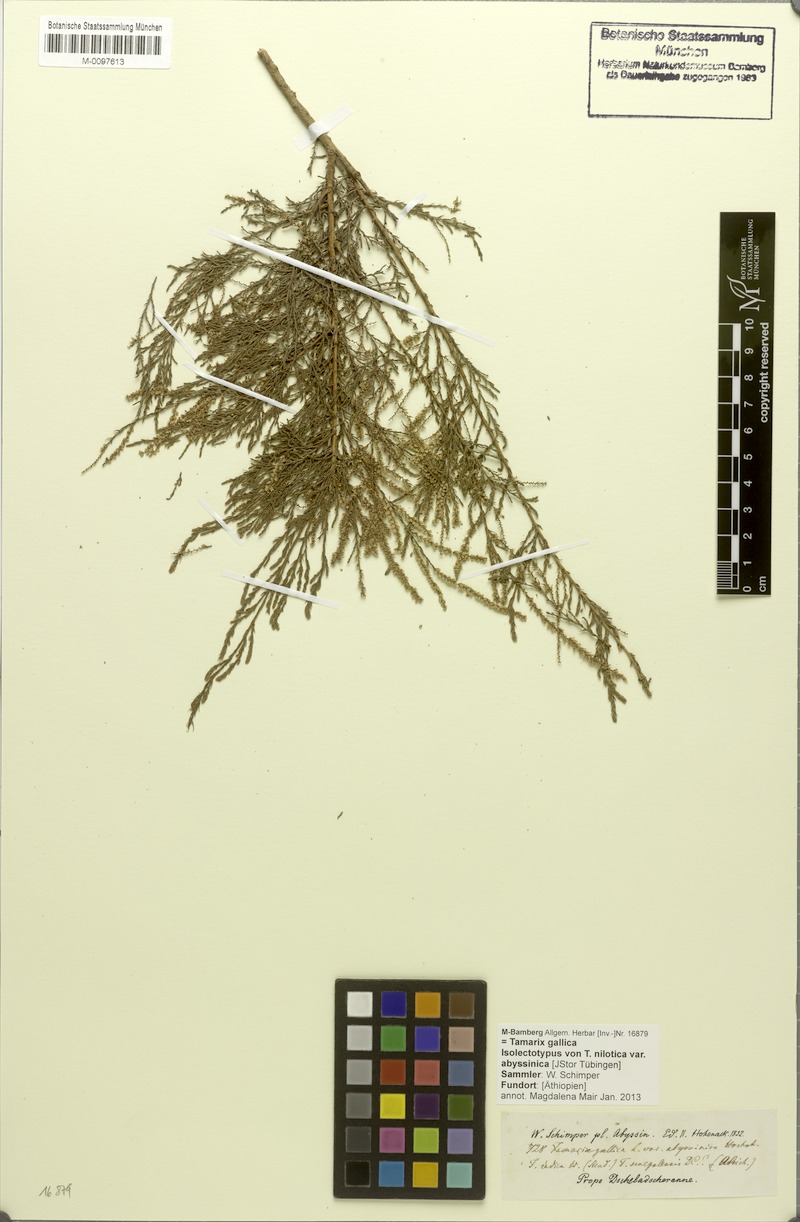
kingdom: Plantae
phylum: Tracheophyta
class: Magnoliopsida
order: Caryophyllales
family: Tamaricaceae
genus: Tamarix
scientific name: Tamarix gallica
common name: Tamarisk
